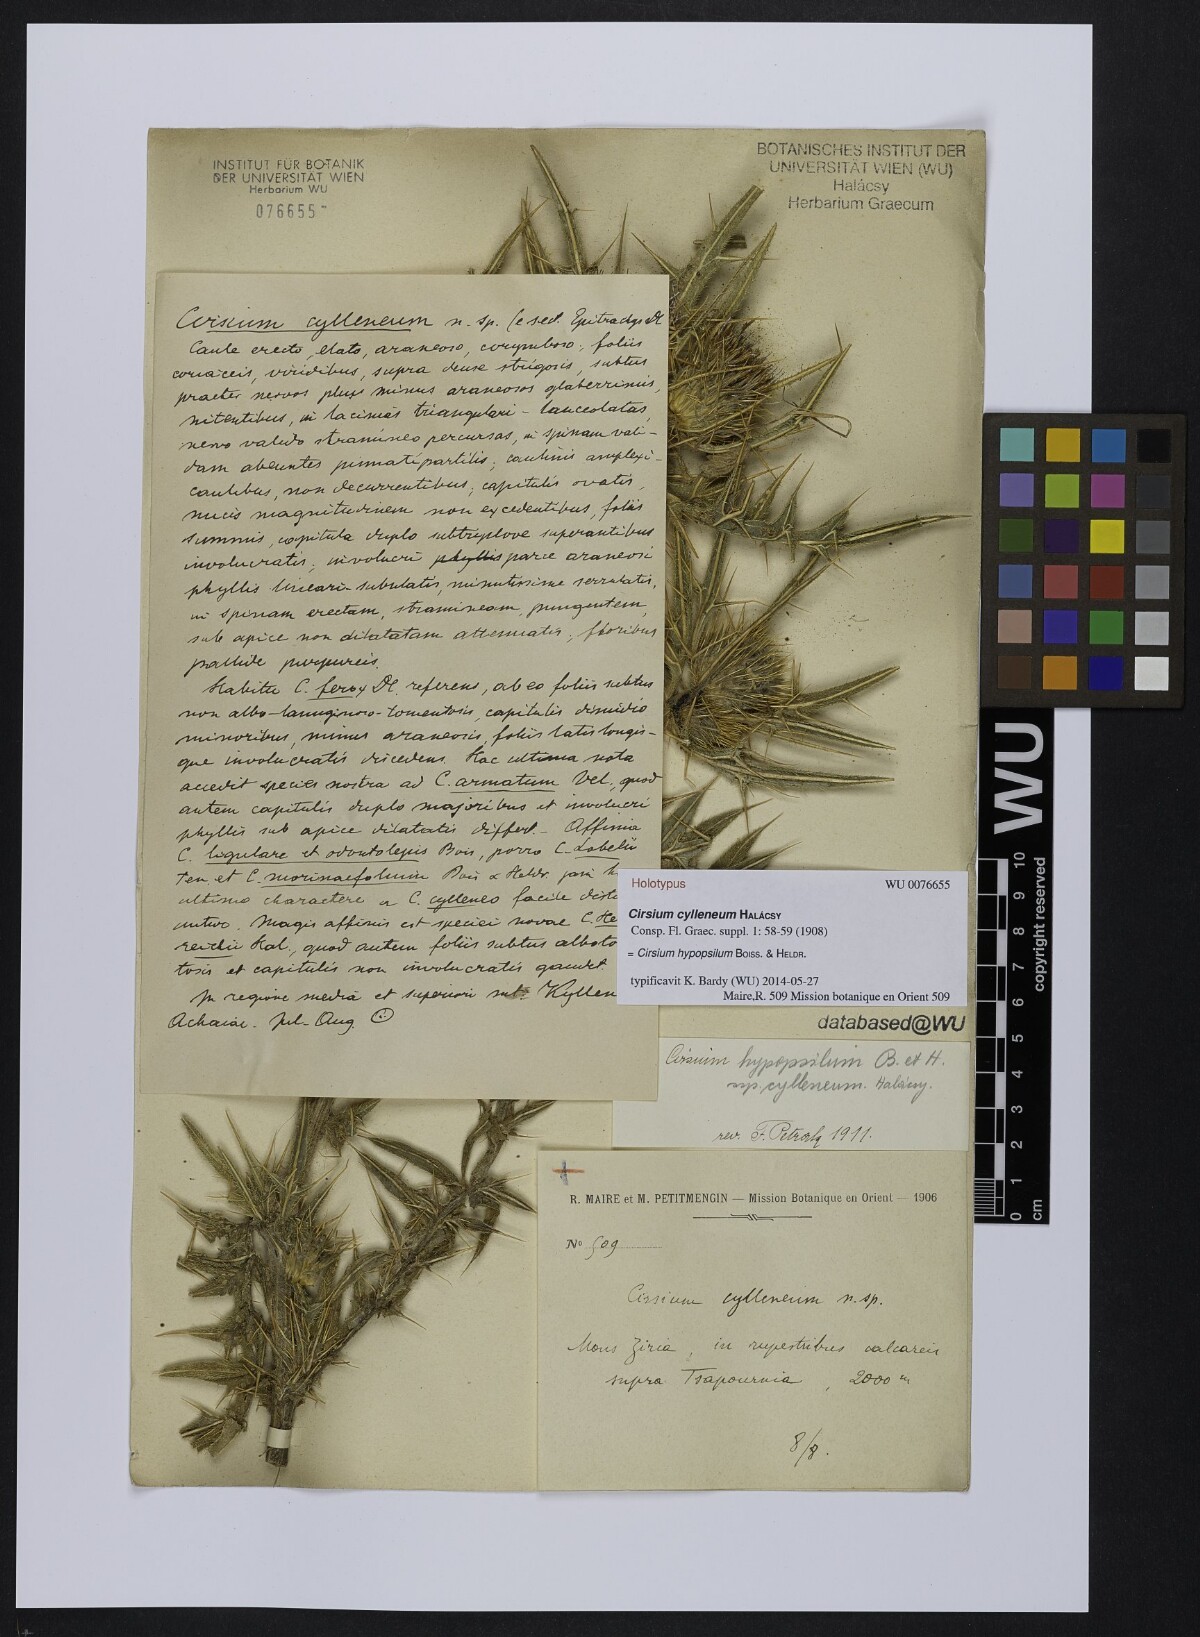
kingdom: Plantae
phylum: Tracheophyta
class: Magnoliopsida
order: Asterales
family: Asteraceae
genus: Lophiolepis
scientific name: Lophiolepis hypopsila
